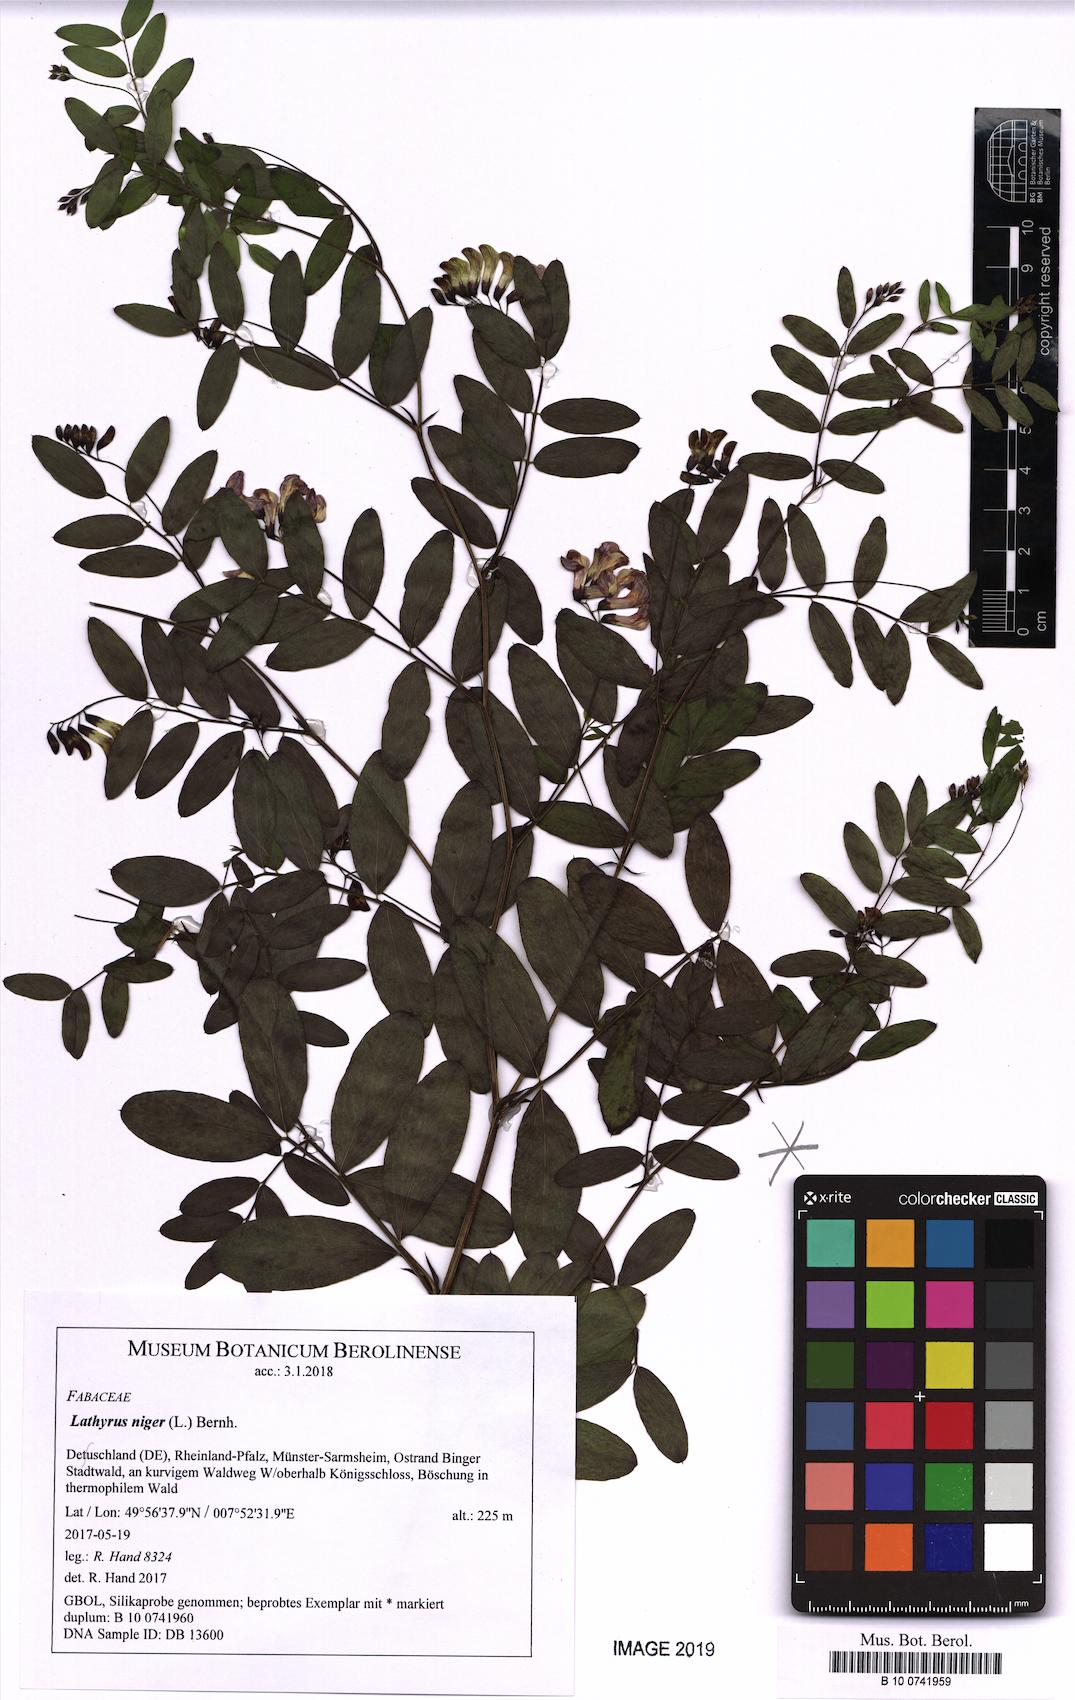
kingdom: Plantae
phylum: Tracheophyta
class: Magnoliopsida
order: Fabales
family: Fabaceae
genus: Lathyrus
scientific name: Lathyrus niger
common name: Black pea
